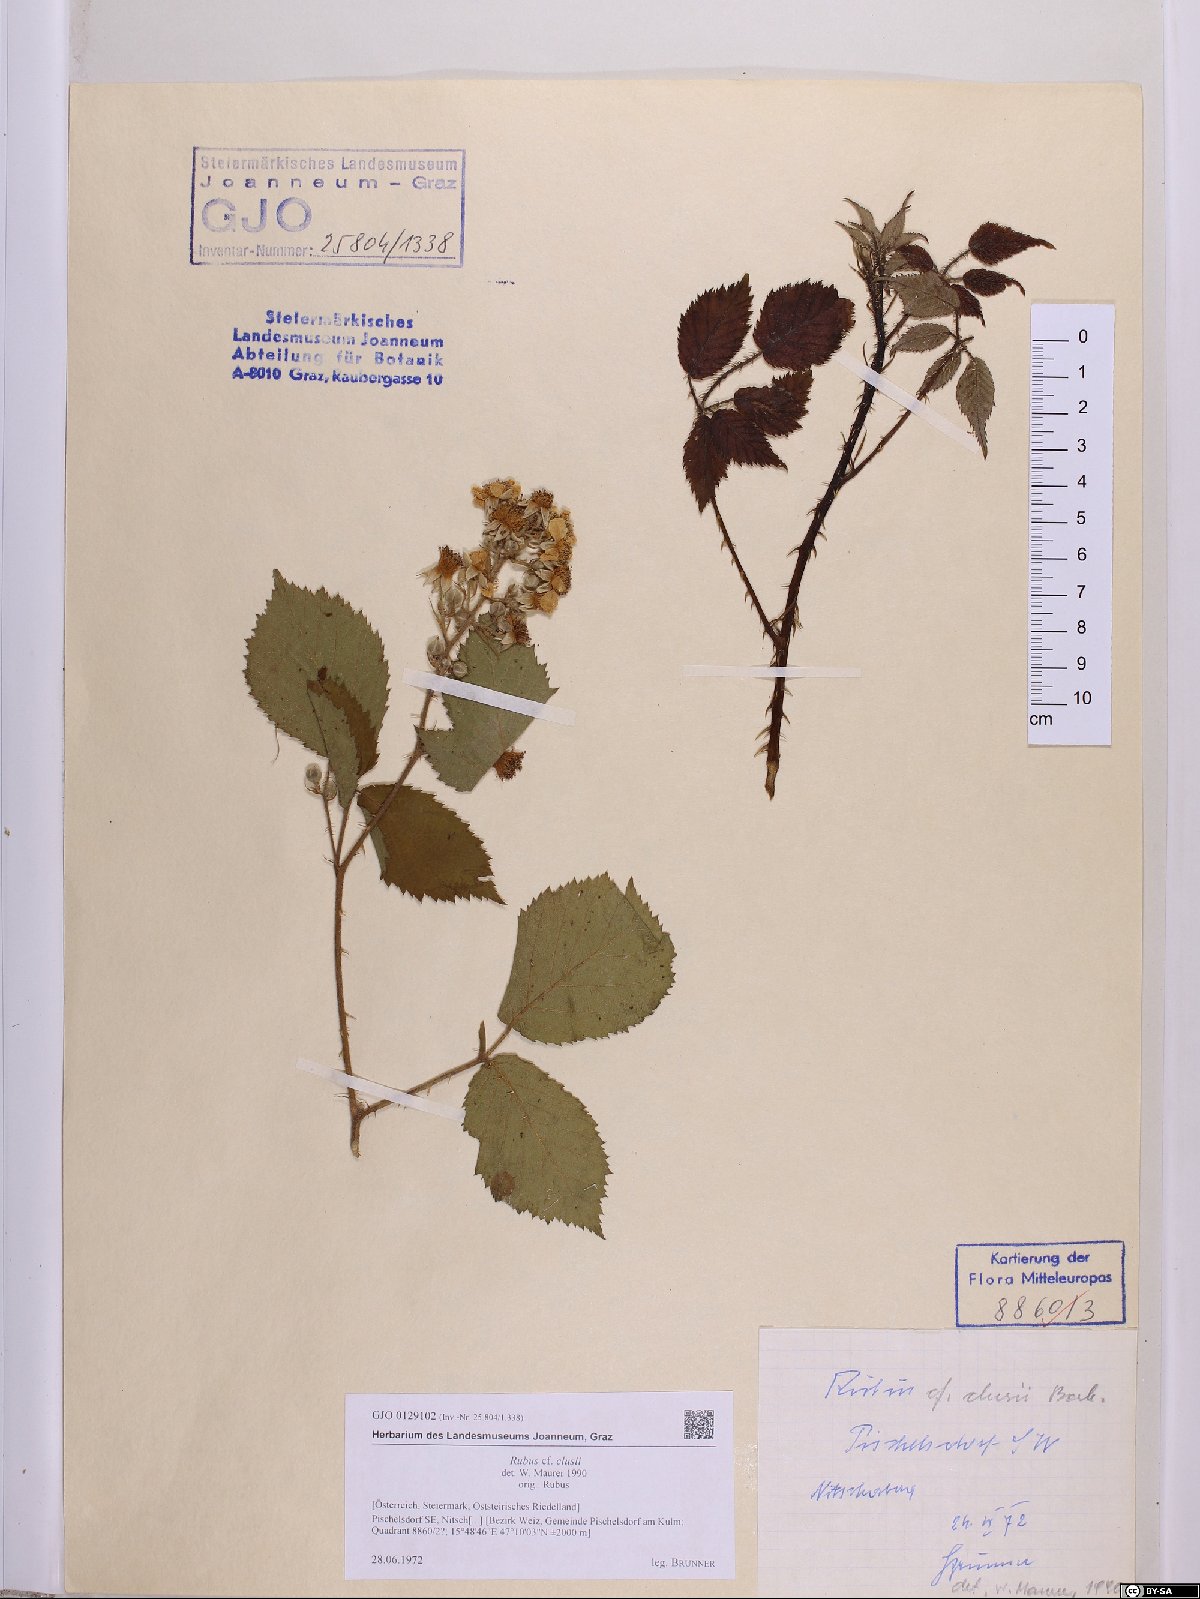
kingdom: Plantae
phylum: Tracheophyta
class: Magnoliopsida
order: Rosales
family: Rosaceae
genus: Rubus
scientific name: Rubus clusii
